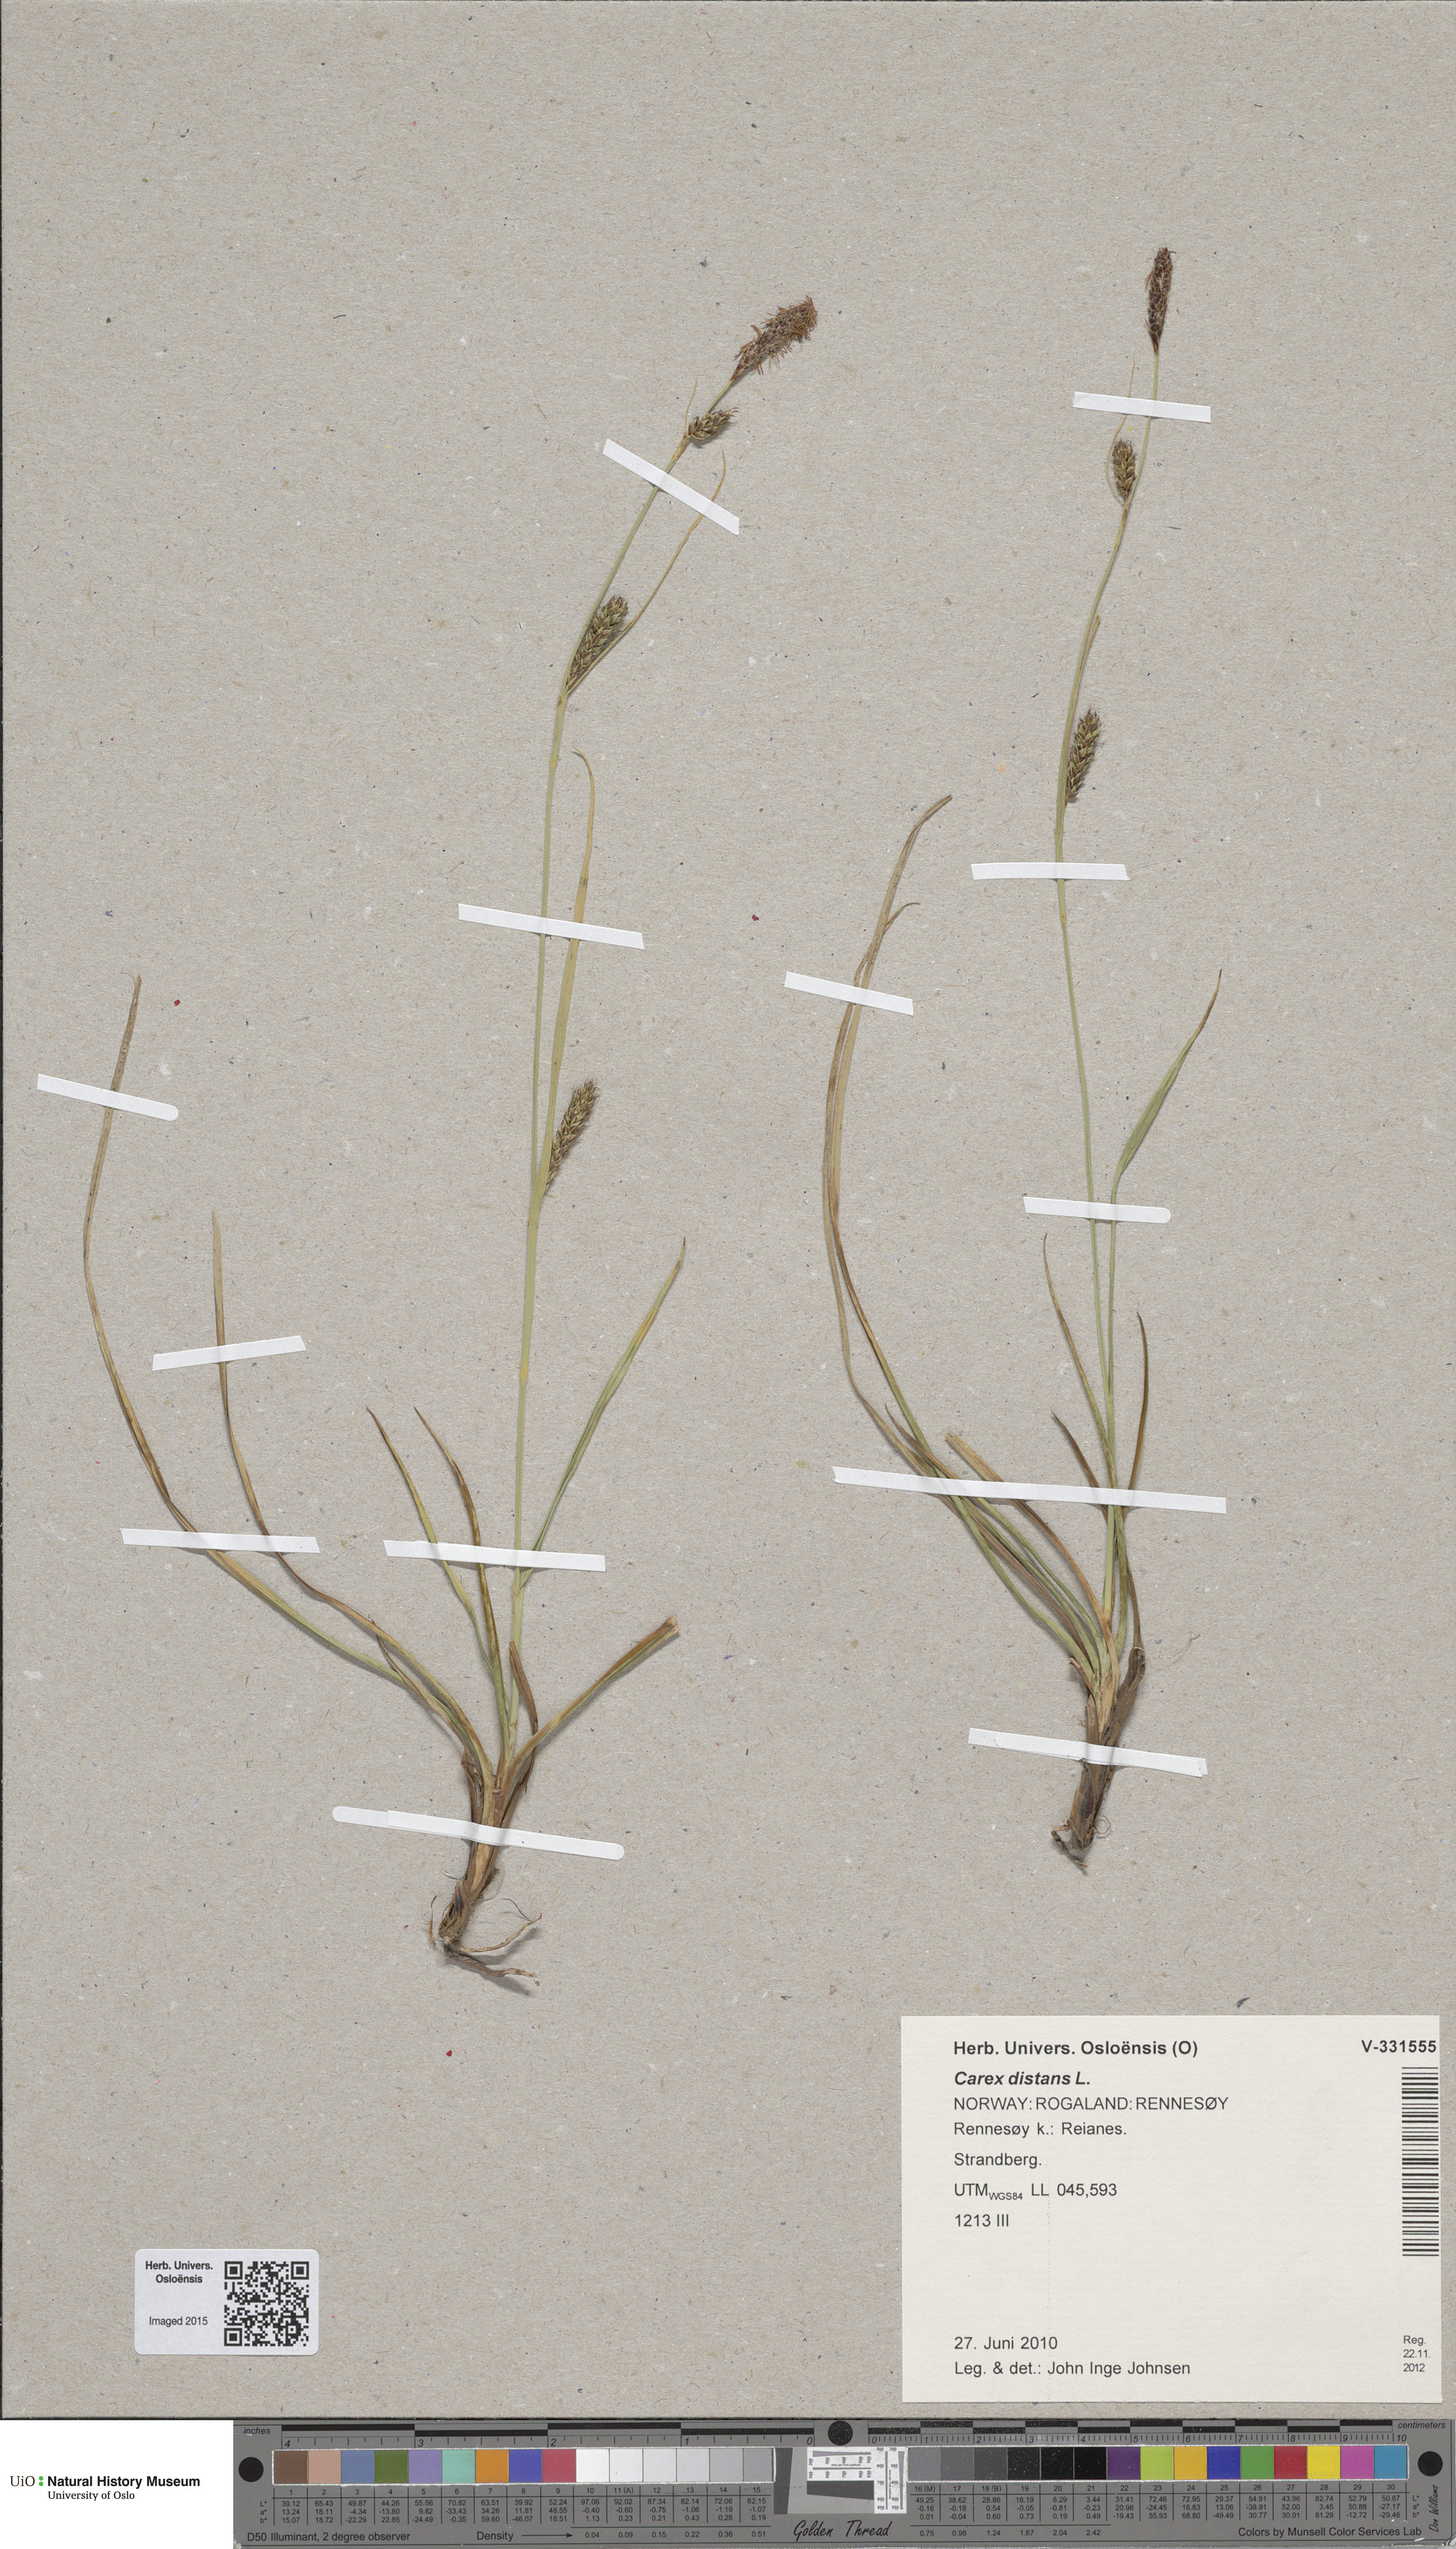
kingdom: Plantae
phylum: Tracheophyta
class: Liliopsida
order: Poales
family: Cyperaceae
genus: Carex
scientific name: Carex distans
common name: Distant sedge
